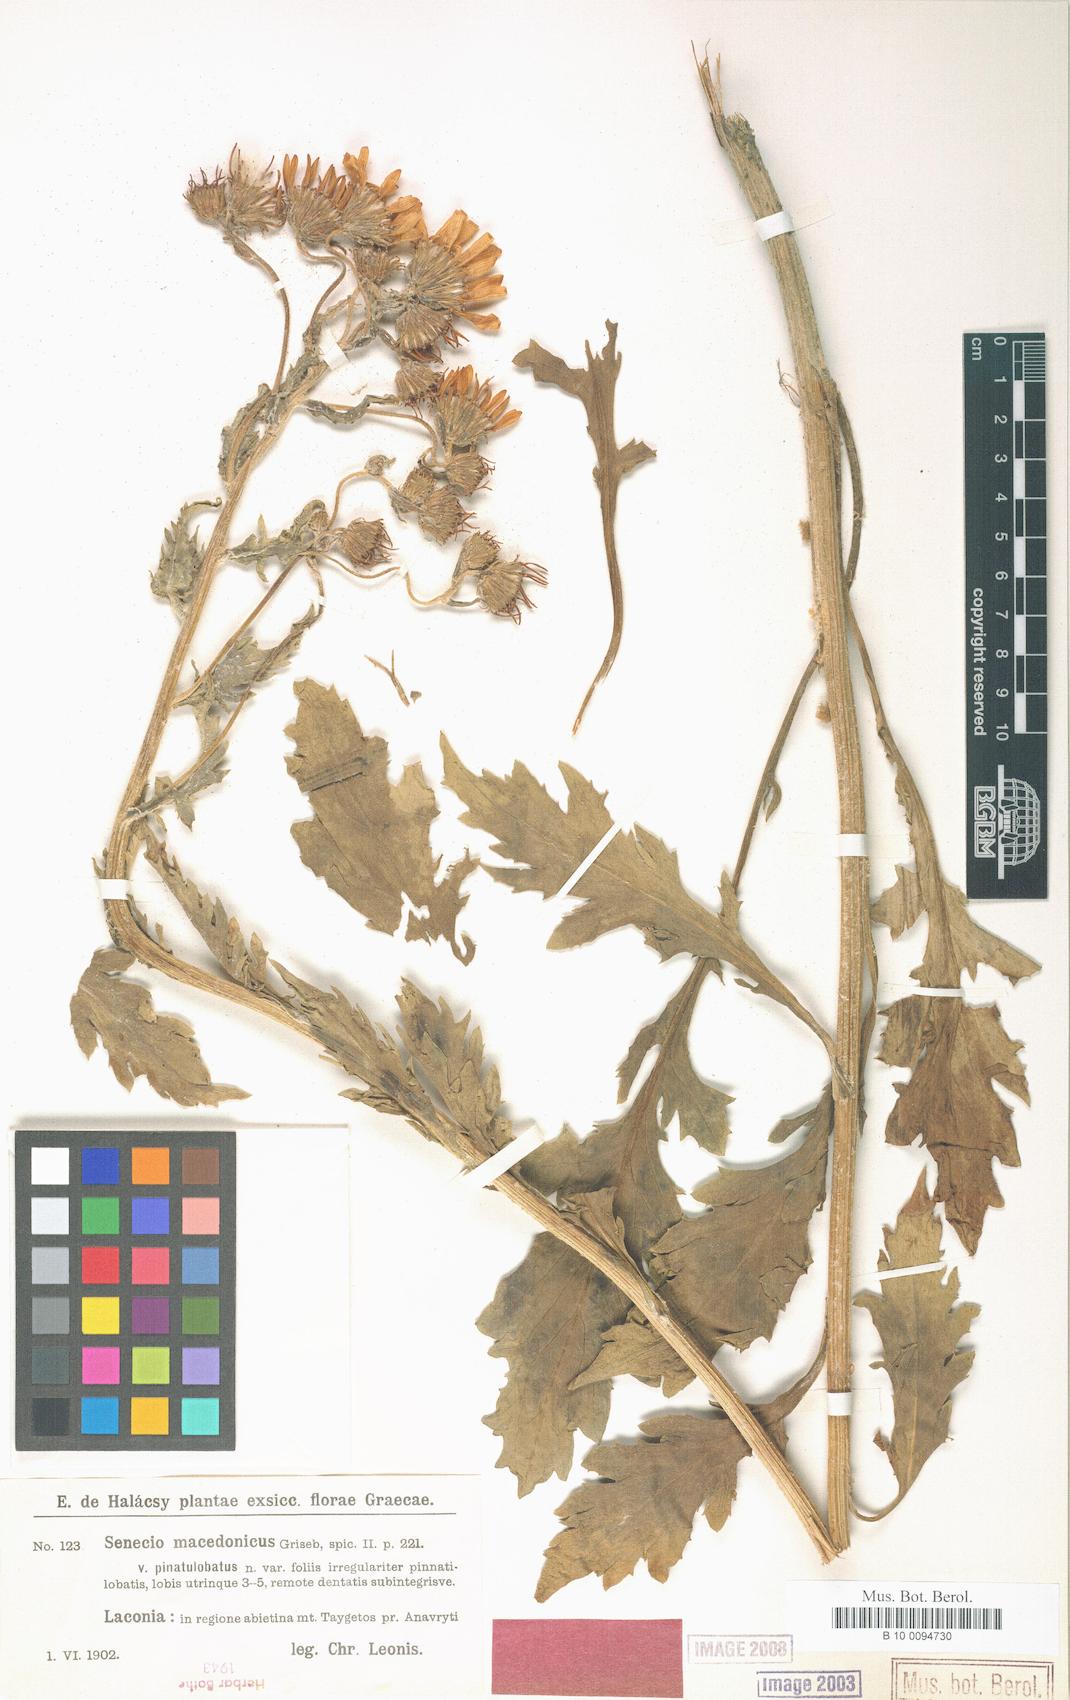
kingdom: Plantae
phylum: Tracheophyta
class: Magnoliopsida
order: Asterales
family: Asteraceae
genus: Senecio
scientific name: Senecio macedonicus
